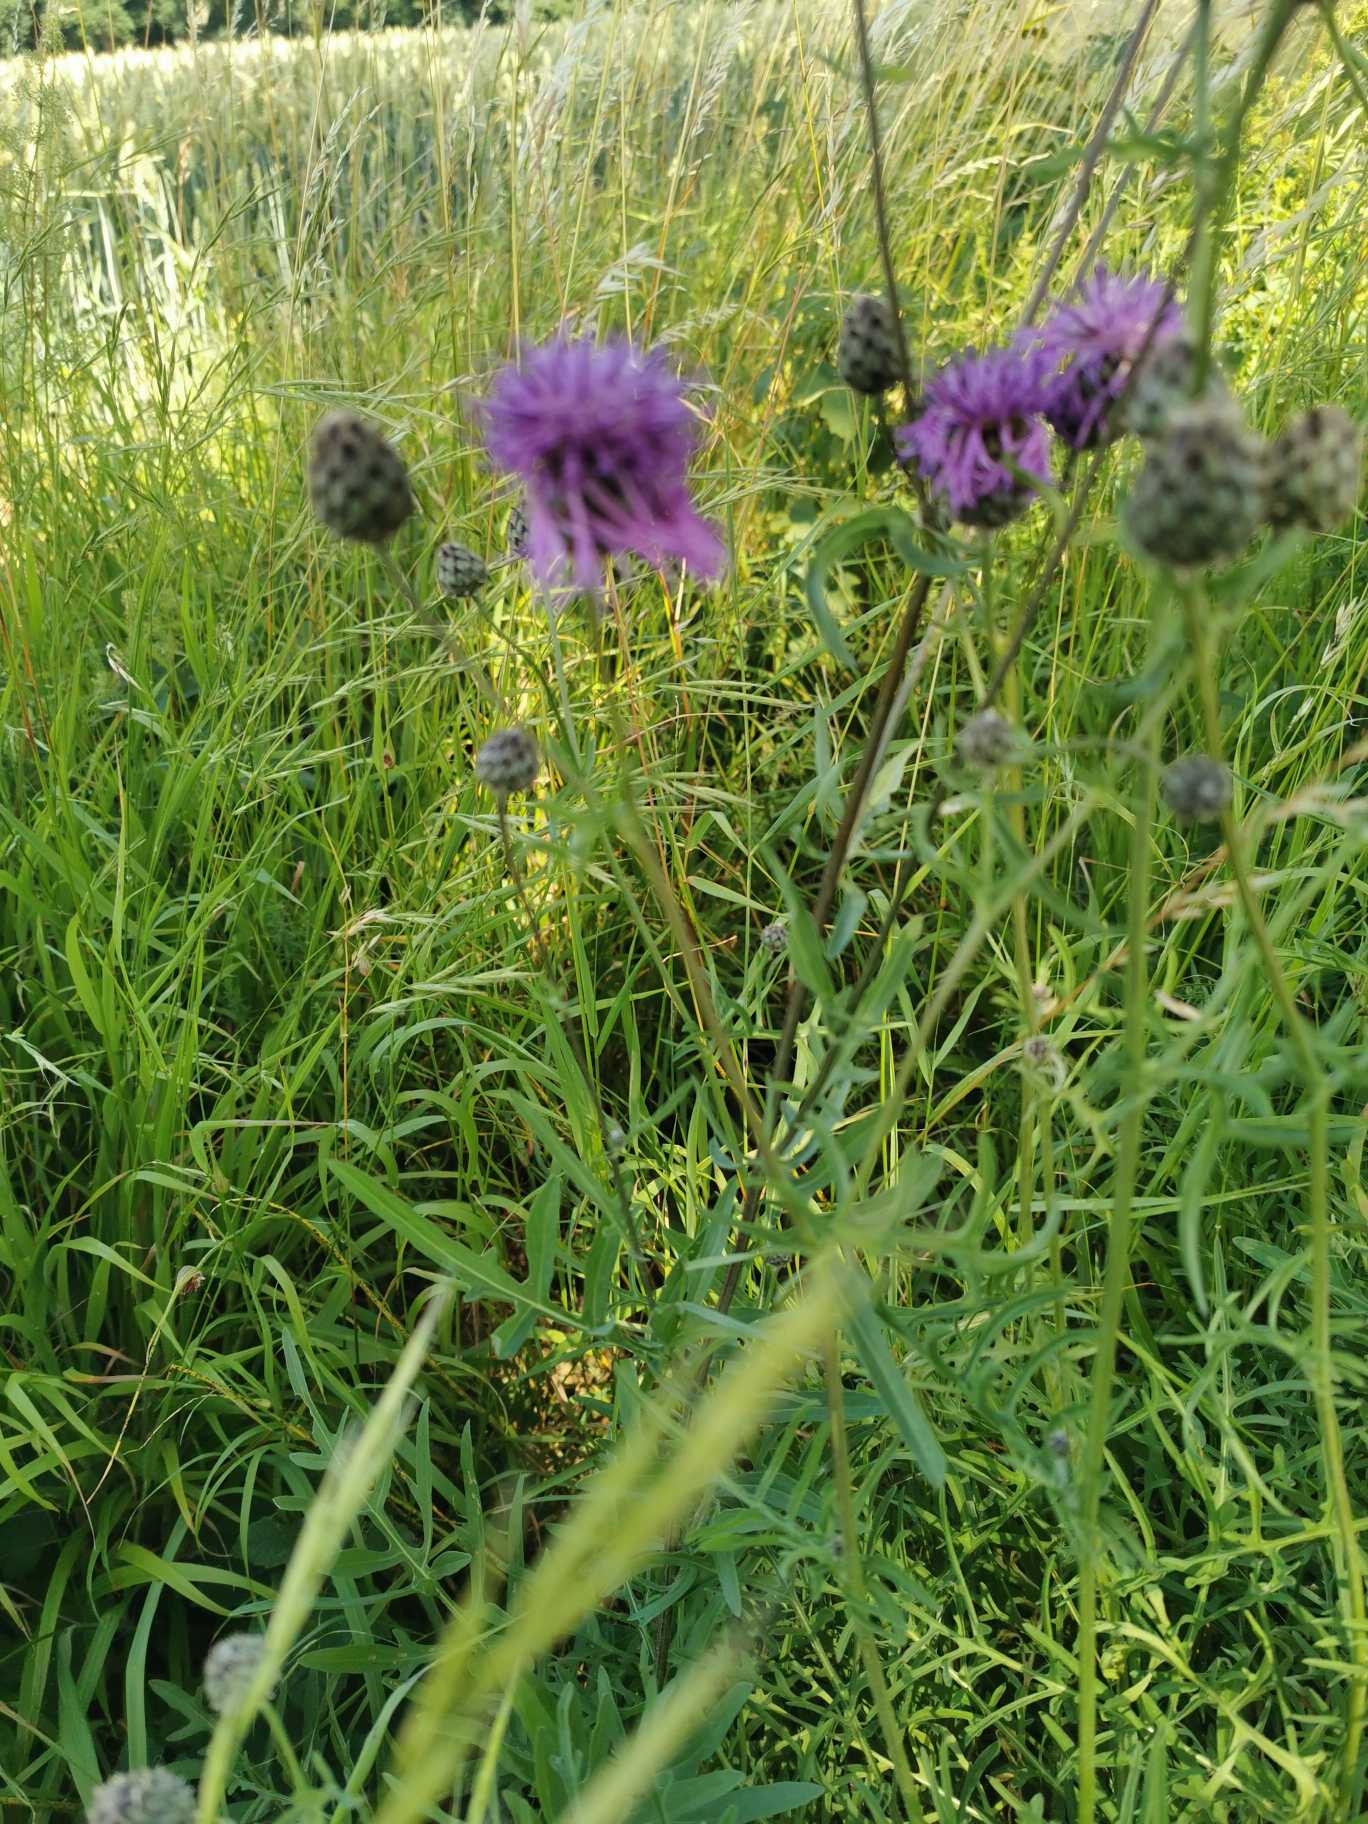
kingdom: Plantae
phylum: Tracheophyta
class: Magnoliopsida
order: Asterales
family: Asteraceae
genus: Centaurea
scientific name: Centaurea scabiosa
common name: Stor knopurt
